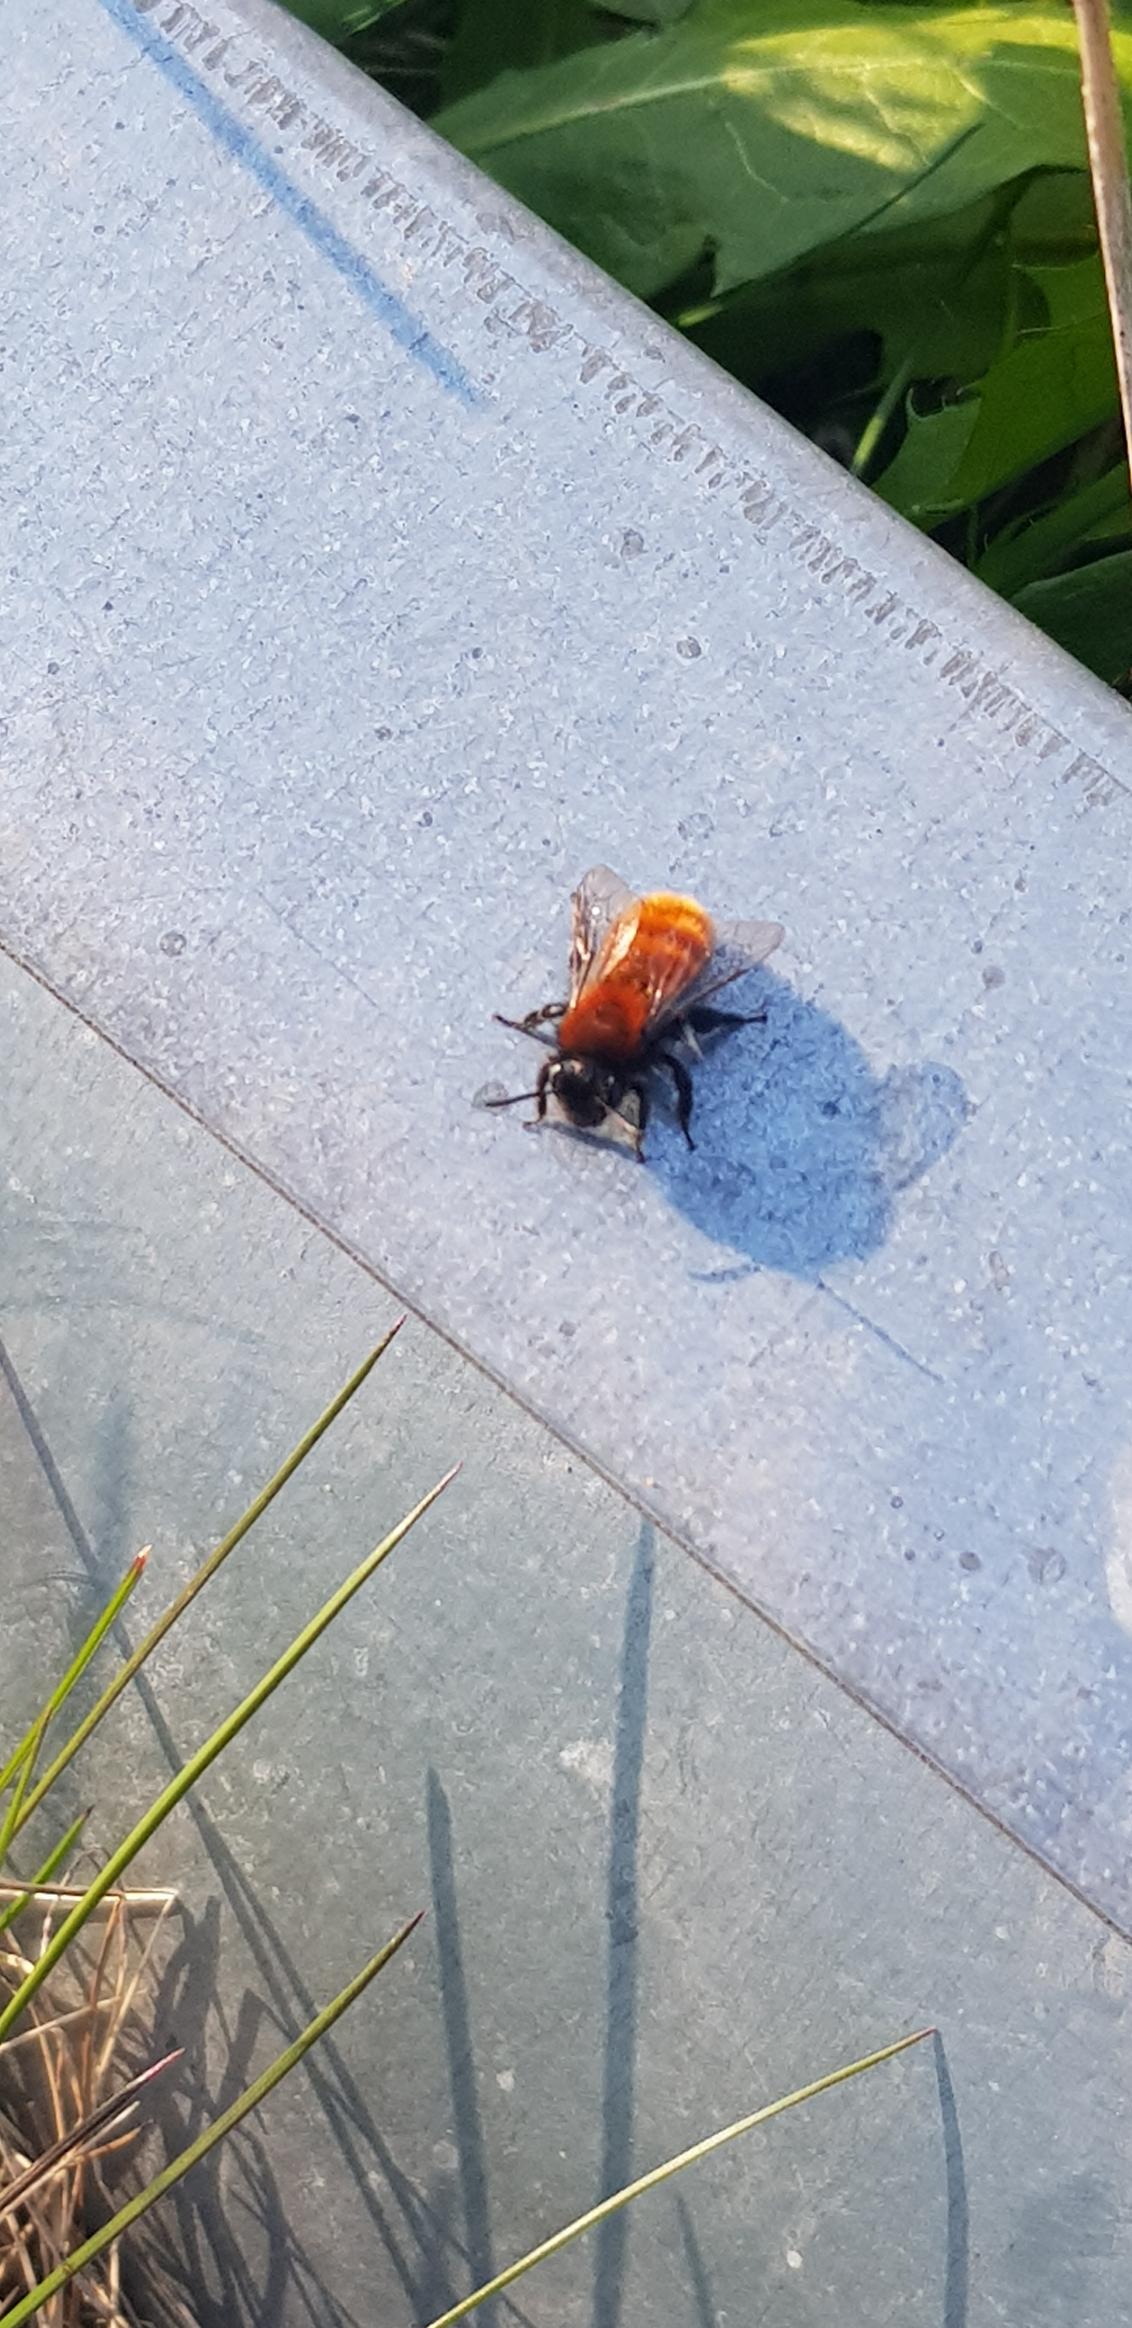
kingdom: Animalia
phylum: Arthropoda
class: Insecta
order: Hymenoptera
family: Andrenidae
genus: Andrena
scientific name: Andrena fulva
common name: Rødpelset jordbi
